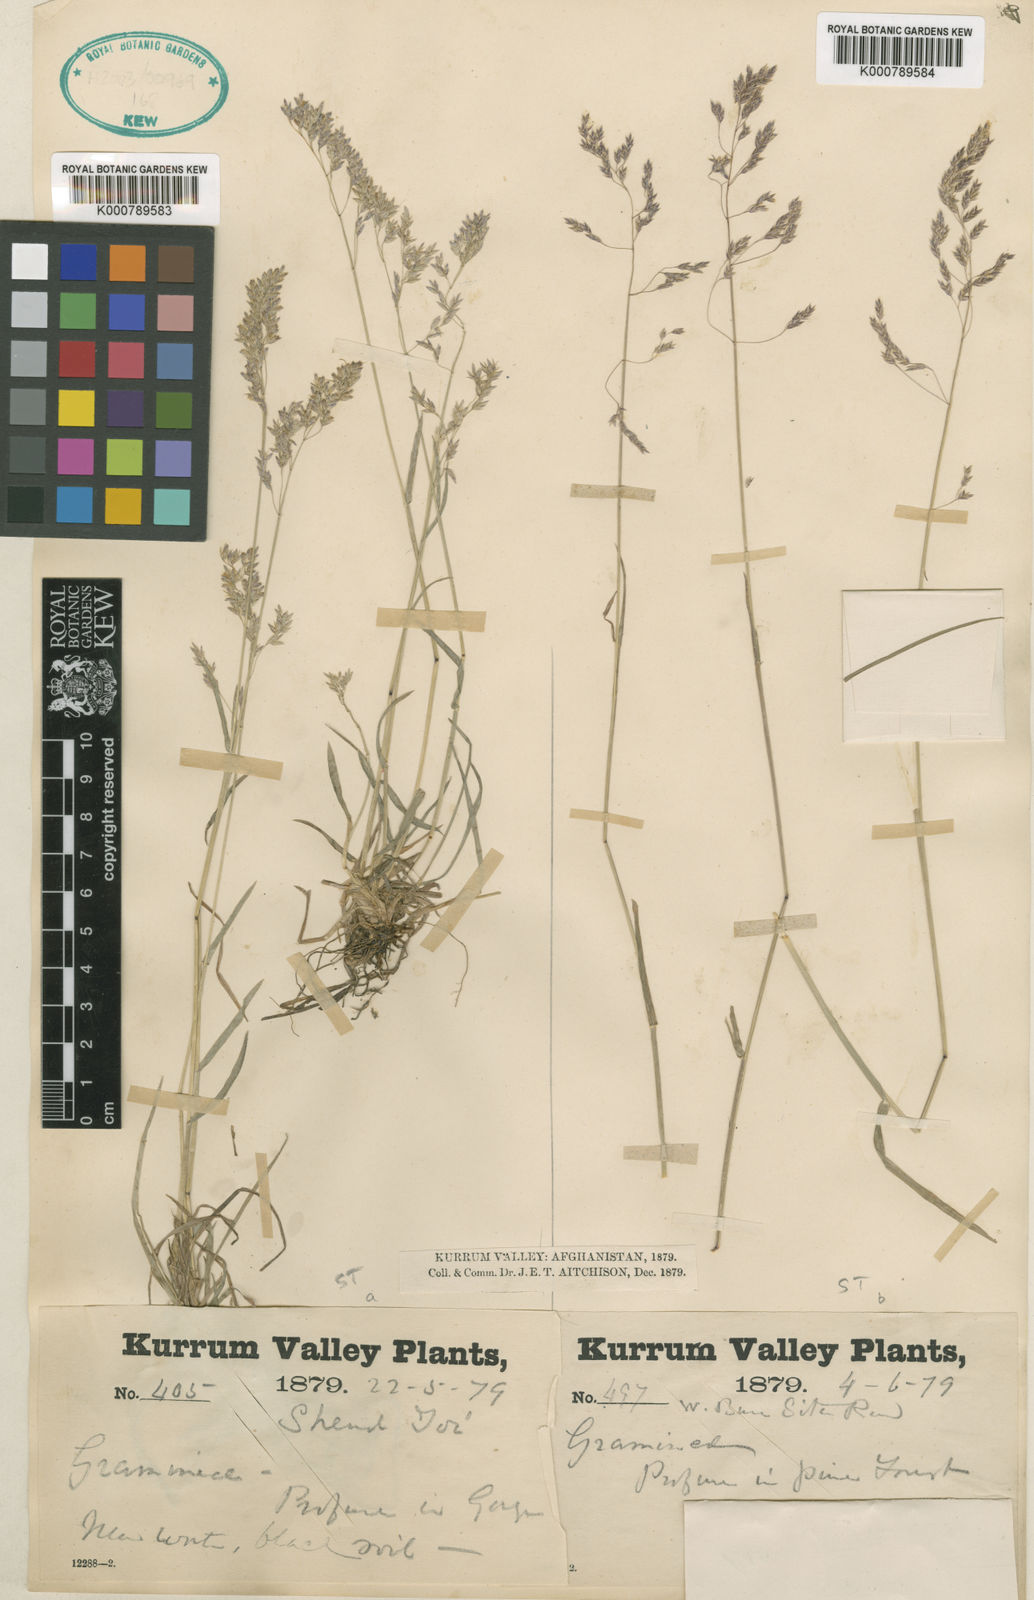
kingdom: Plantae
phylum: Tracheophyta
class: Liliopsida
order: Poales
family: Poaceae
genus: Poa
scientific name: Poa aitchisonii
